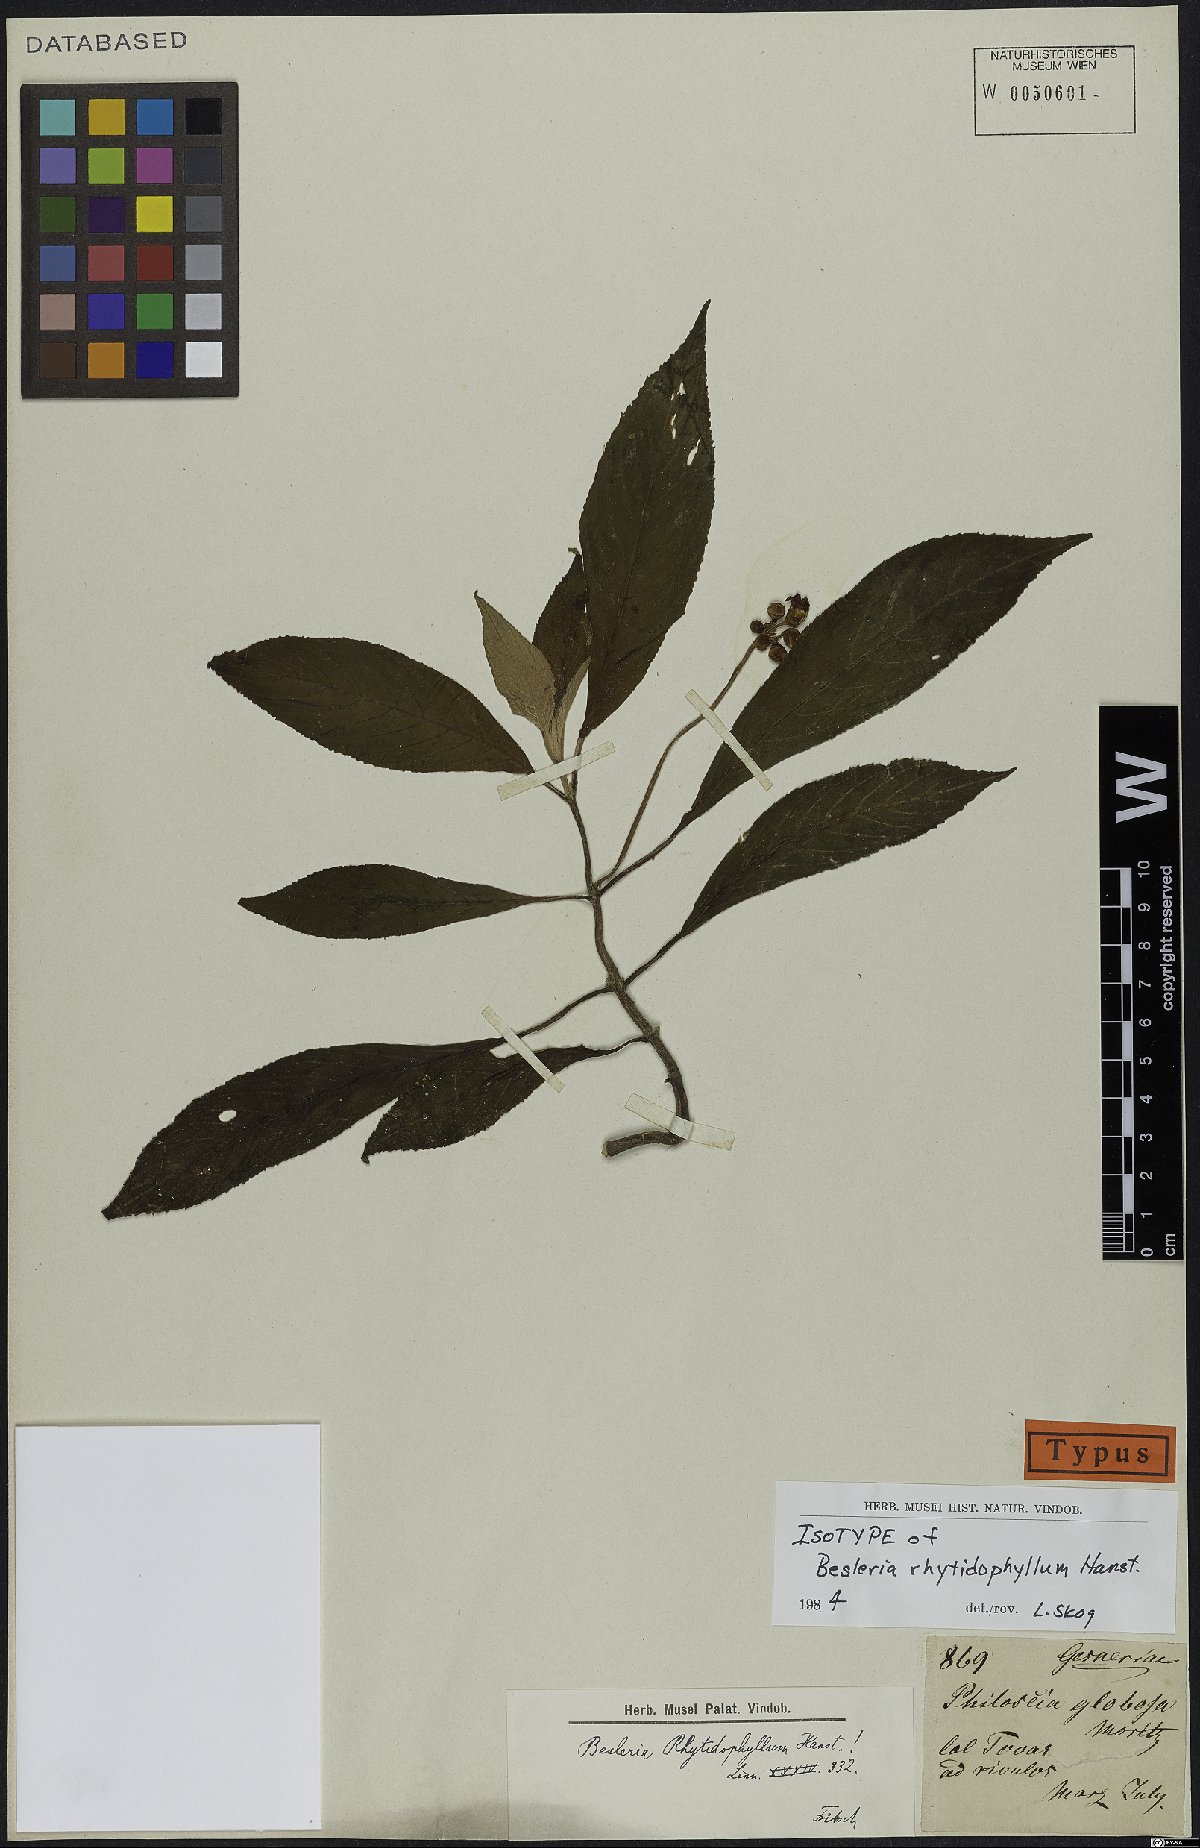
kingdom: Plantae
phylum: Tracheophyta
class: Magnoliopsida
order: Lamiales
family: Gesneriaceae
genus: Besleria
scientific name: Besleria rhytidophyllum
